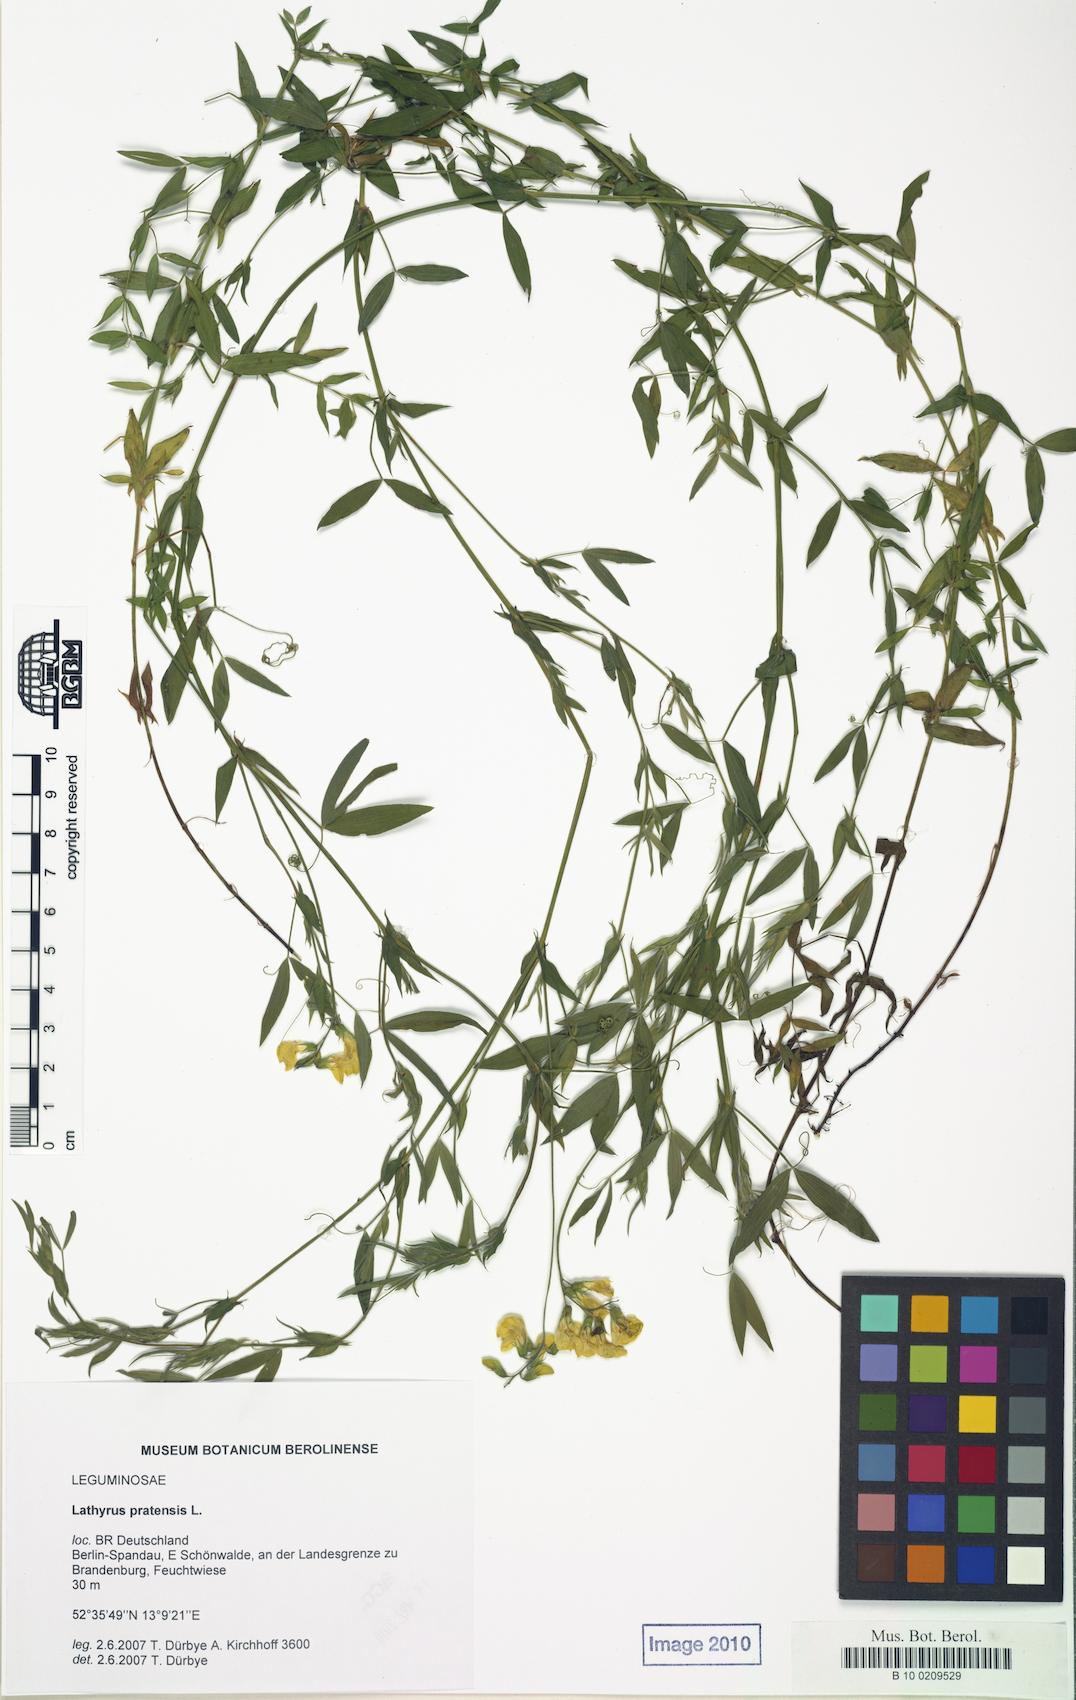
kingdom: Plantae
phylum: Tracheophyta
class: Magnoliopsida
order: Fabales
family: Fabaceae
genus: Lathyrus
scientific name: Lathyrus pratensis
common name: Meadow vetchling
